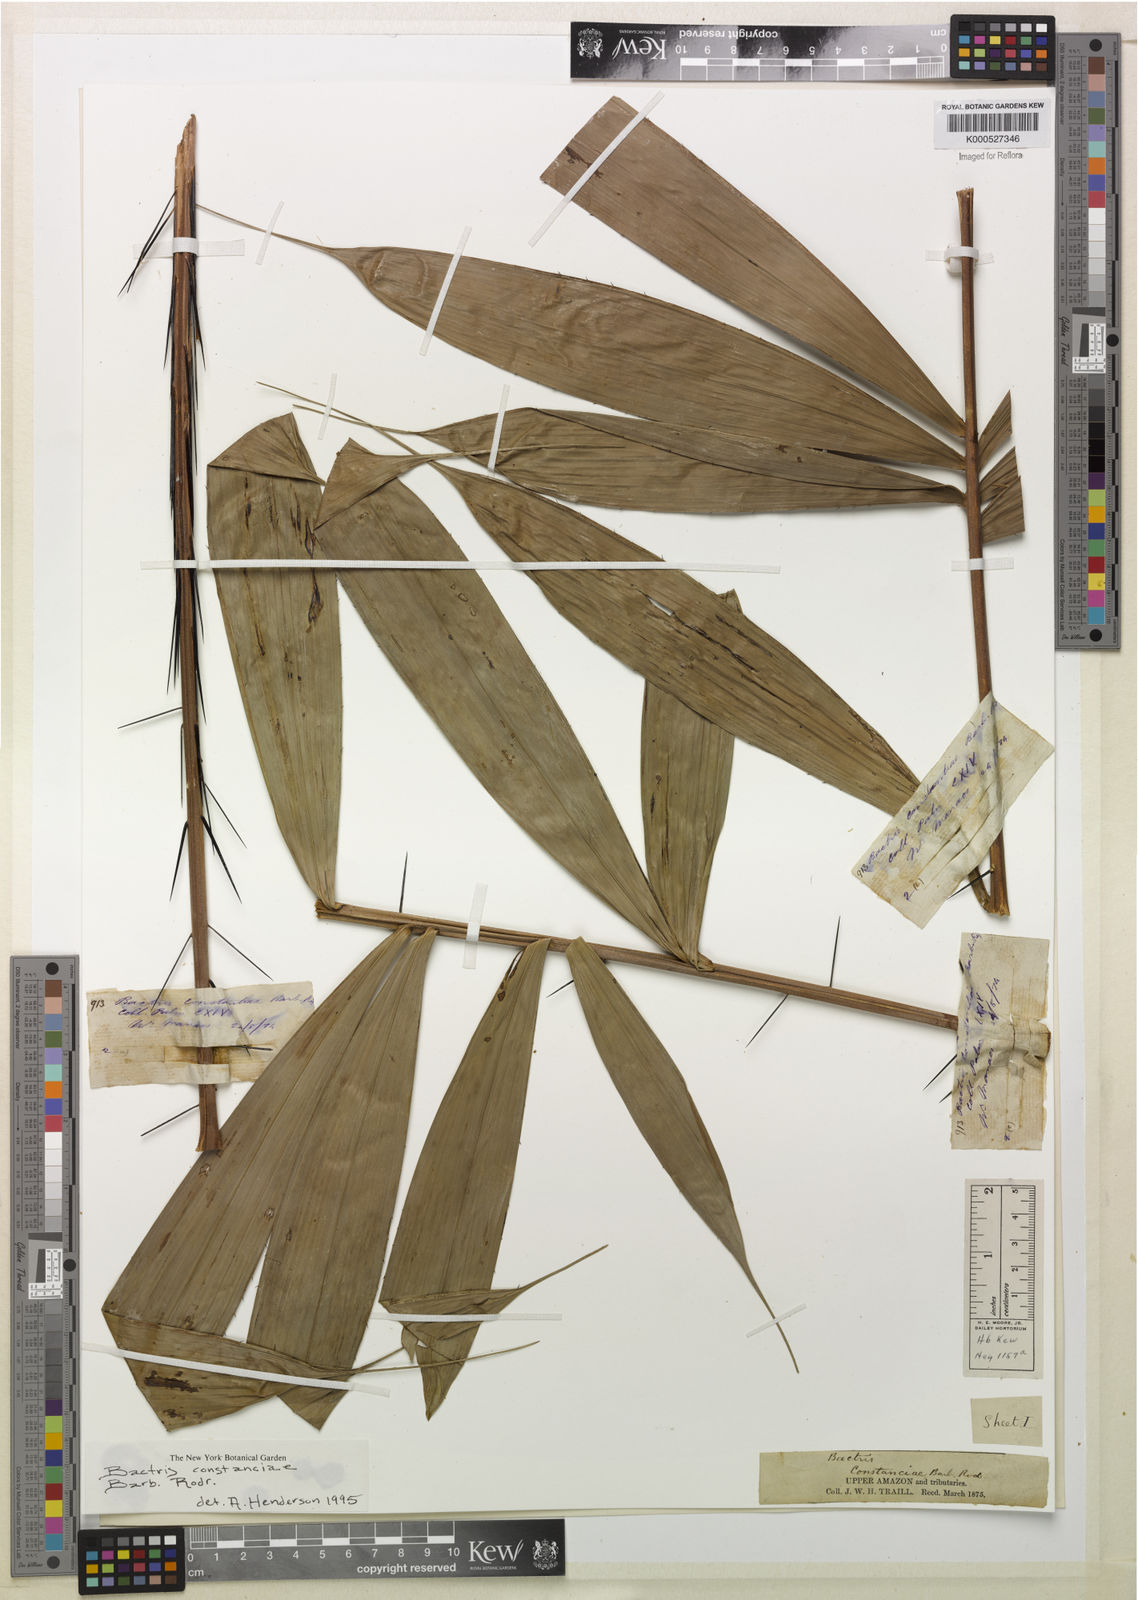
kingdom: Plantae
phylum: Tracheophyta
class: Liliopsida
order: Arecales
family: Arecaceae
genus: Bactris
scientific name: Bactris constanciae
